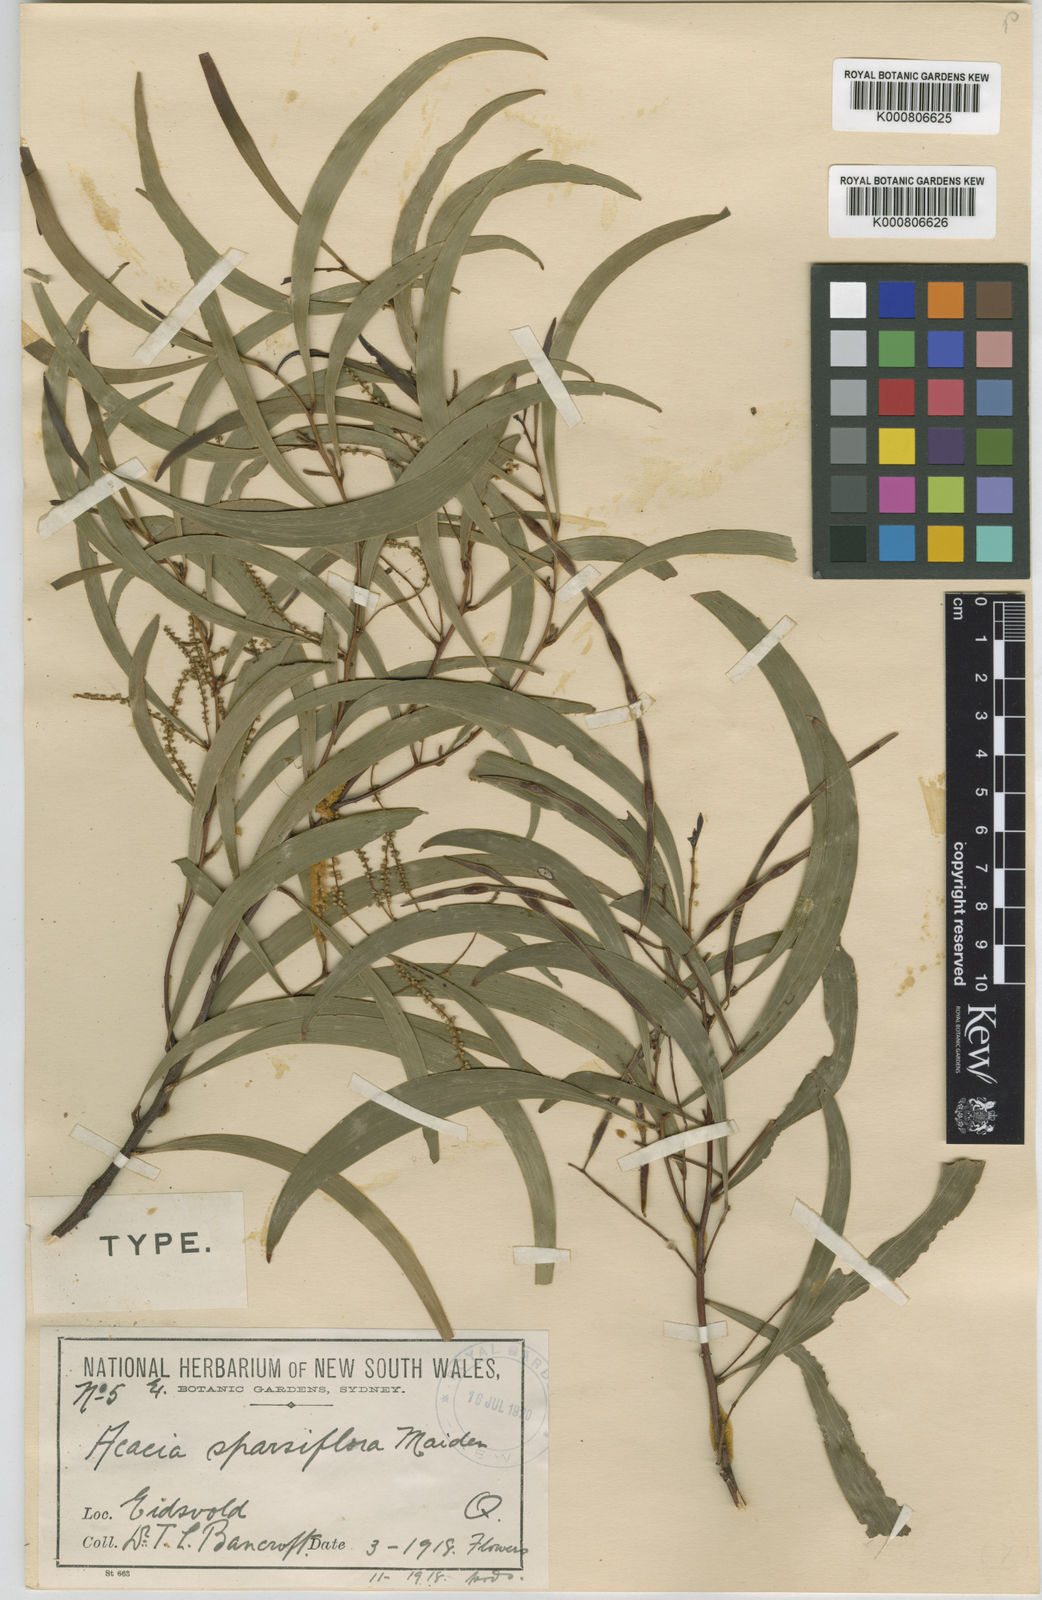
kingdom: Plantae
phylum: Tracheophyta
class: Magnoliopsida
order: Fabales
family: Fabaceae
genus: Acacia
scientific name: Acacia sparsiflora
